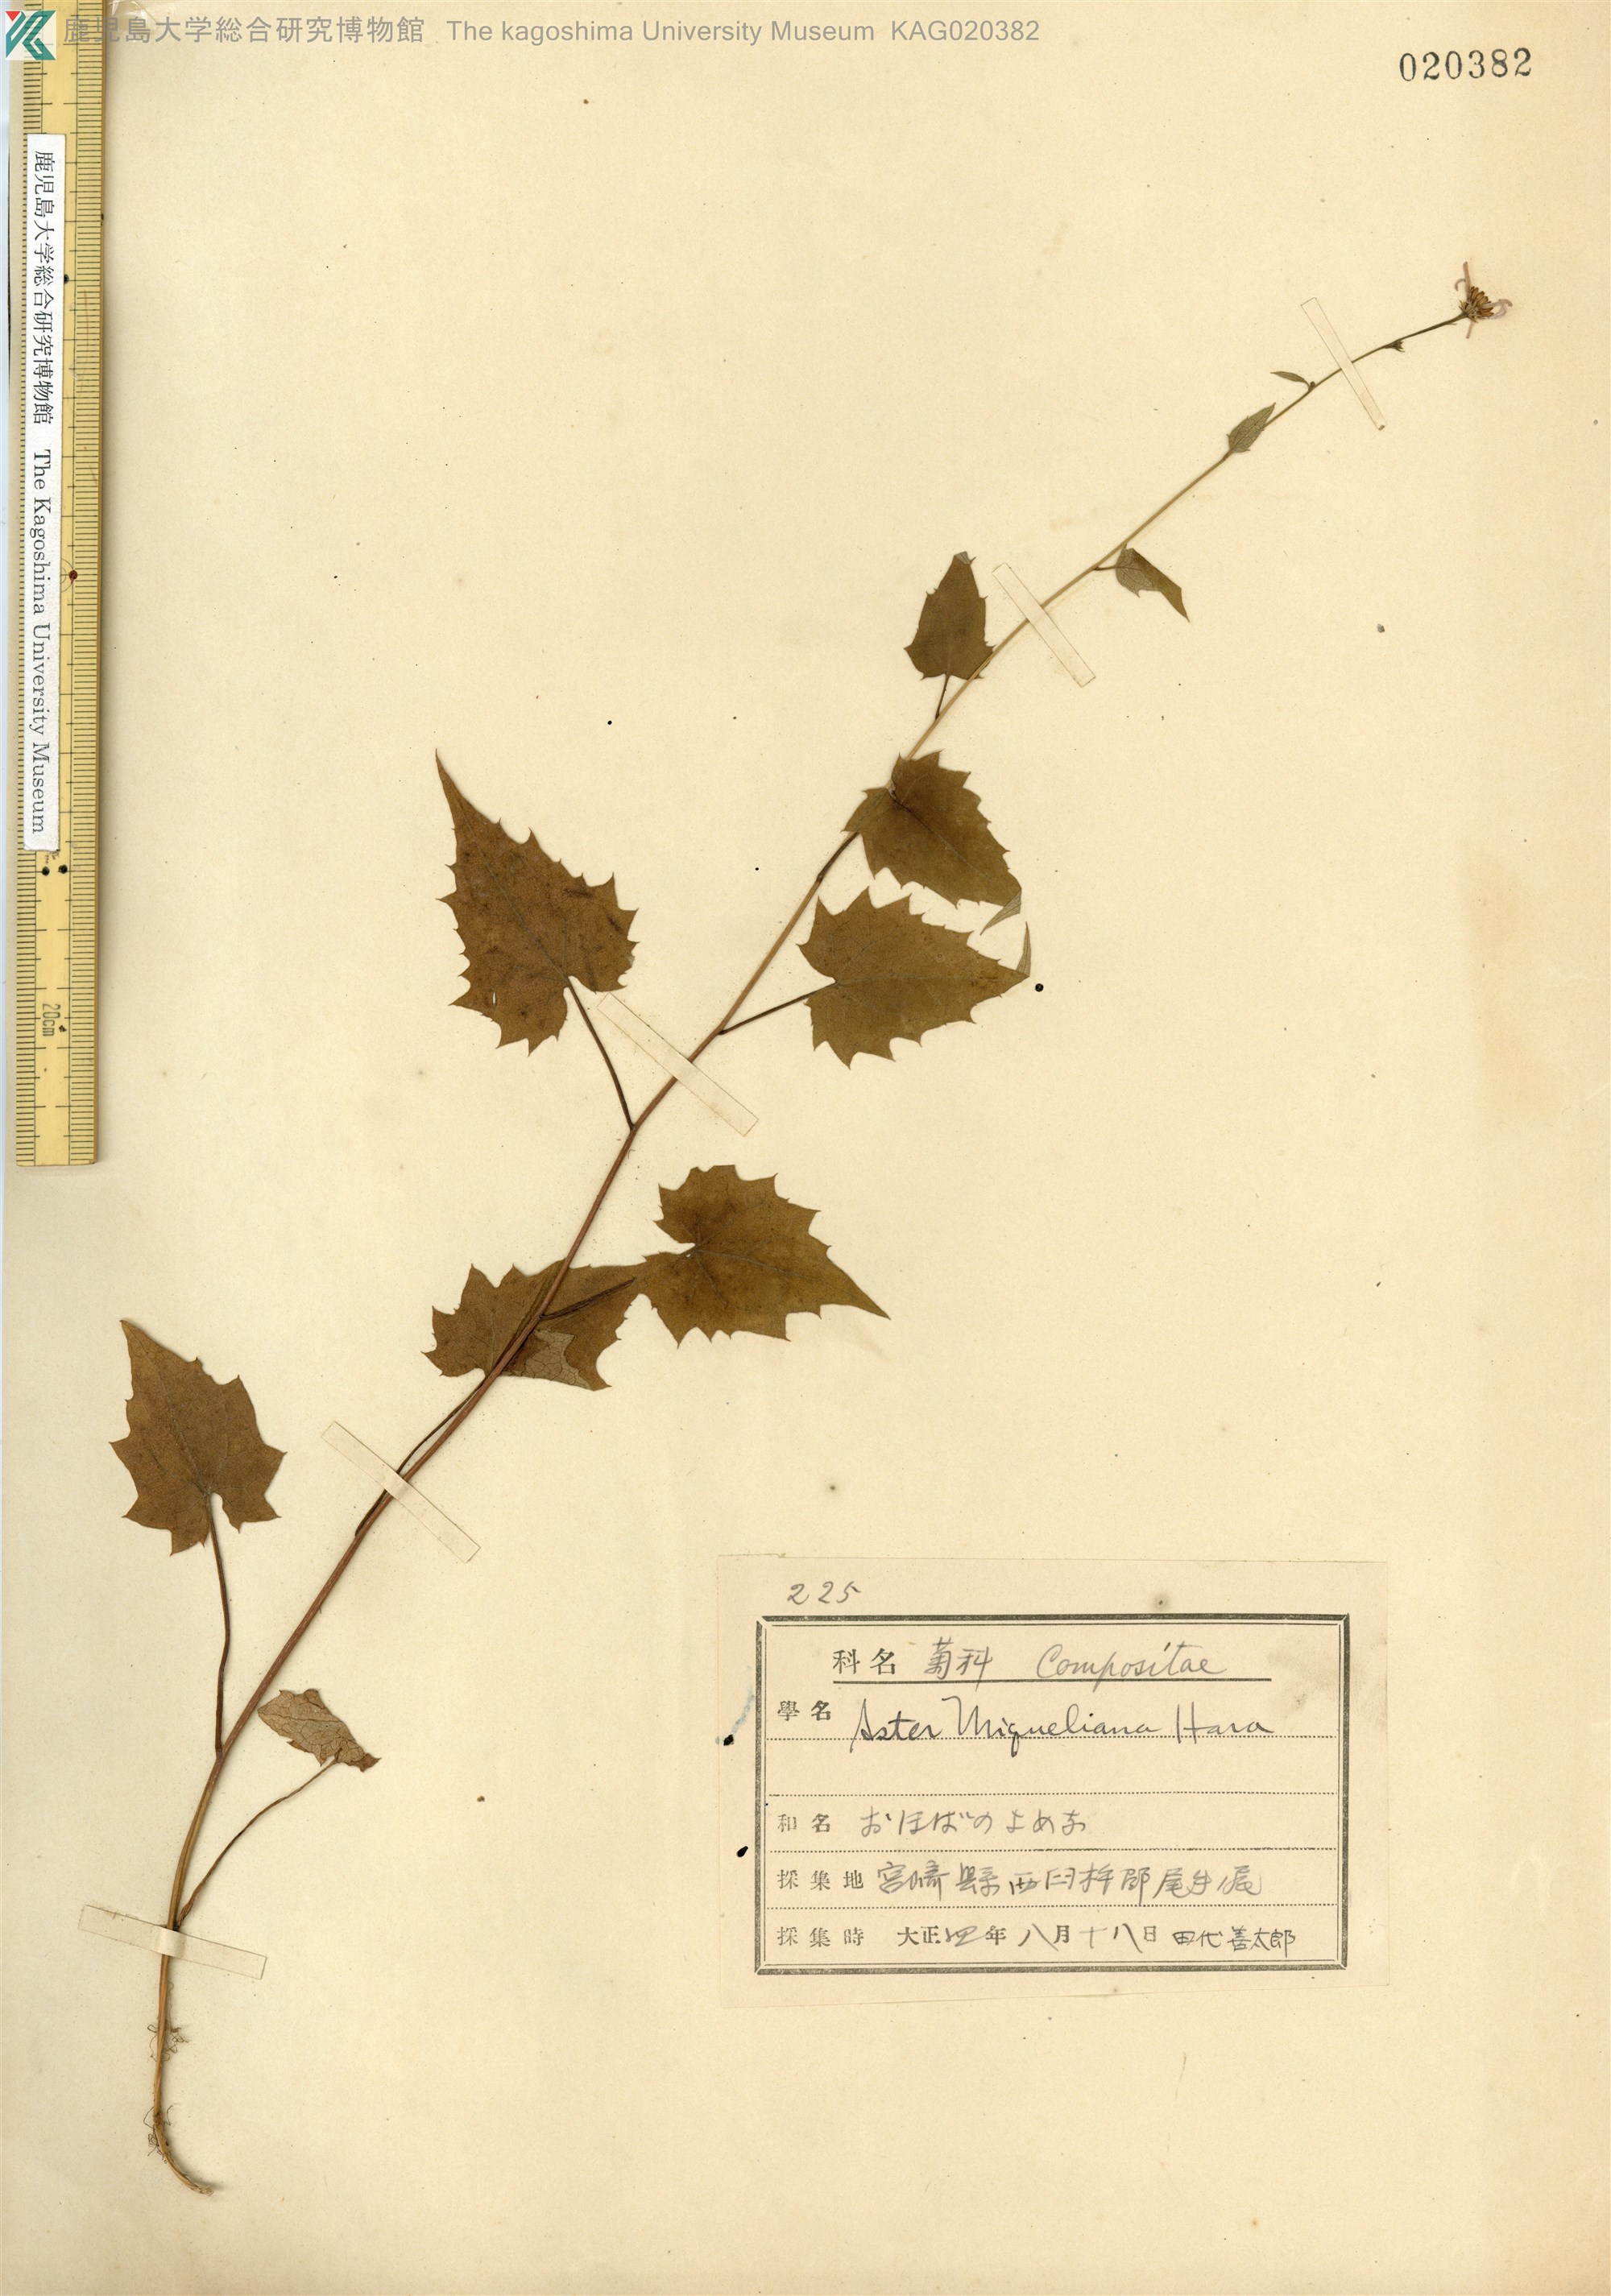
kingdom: Plantae
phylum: Tracheophyta
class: Magnoliopsida
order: Asterales
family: Asteraceae
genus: Cardiagyris
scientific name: Cardiagyris miquelianus
